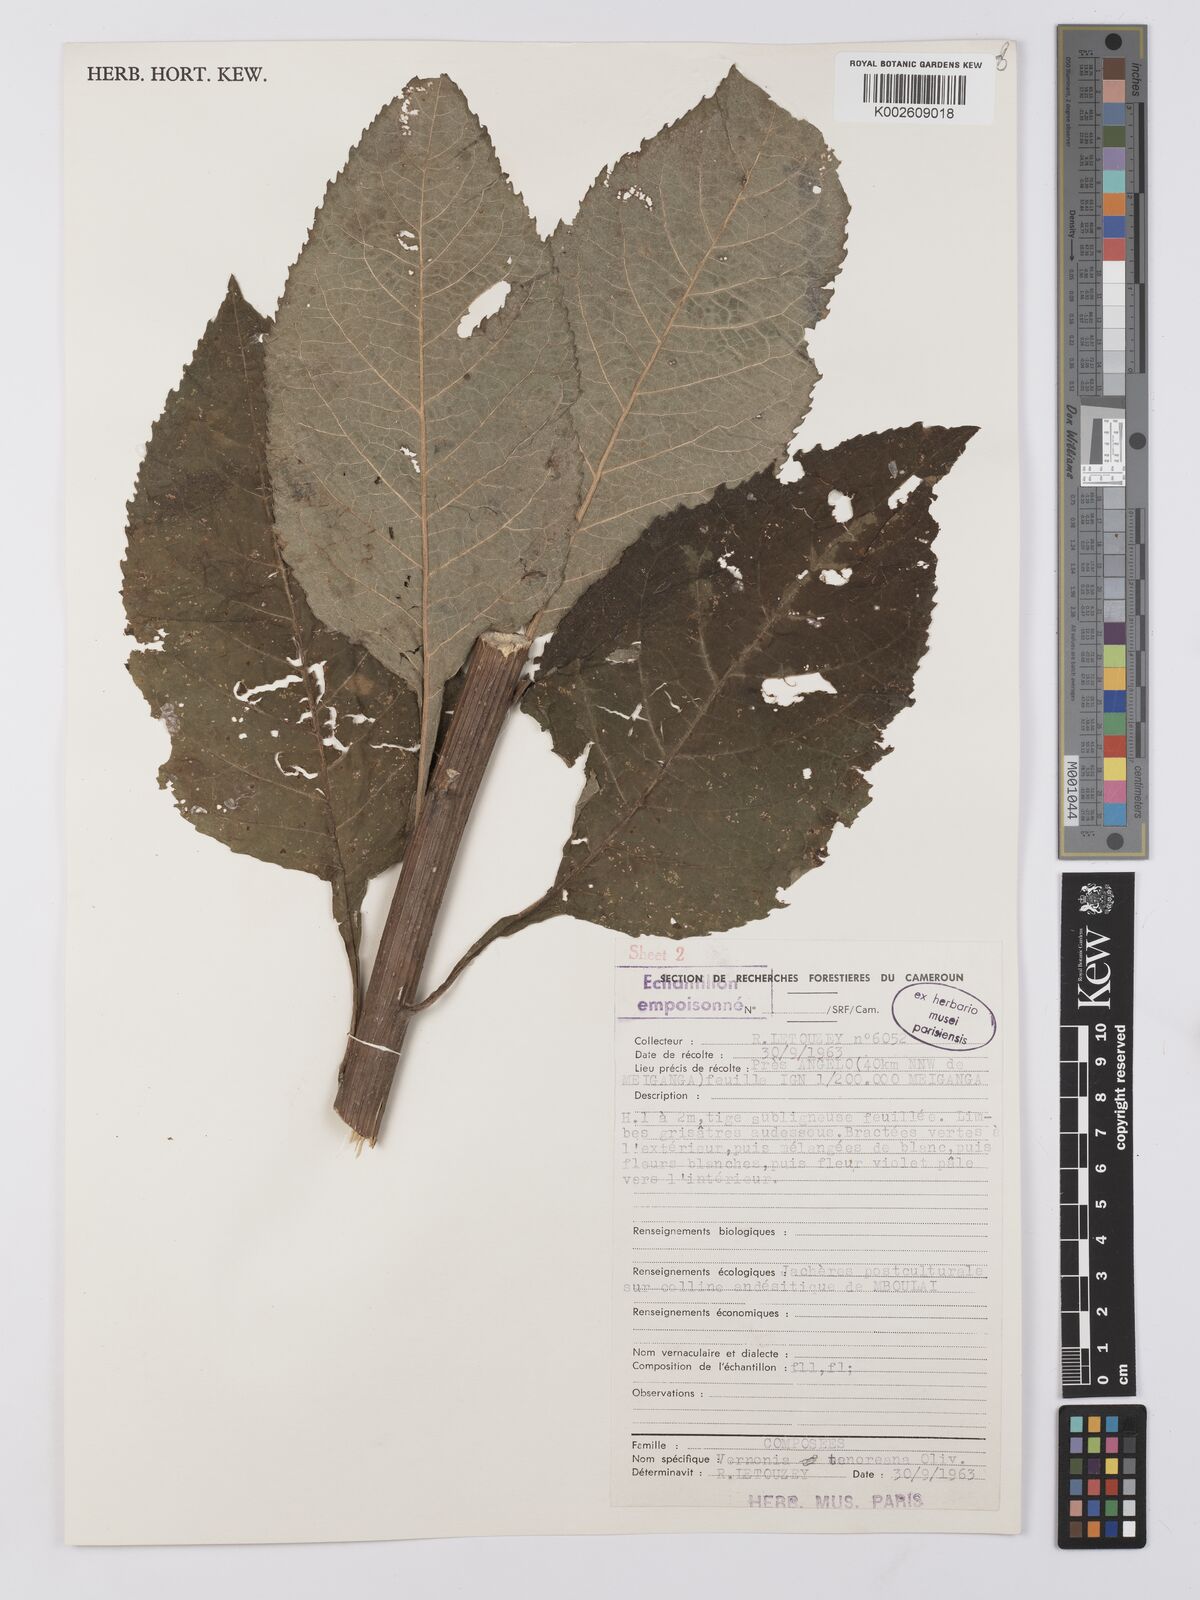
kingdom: Plantae
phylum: Tracheophyta
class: Magnoliopsida
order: Asterales
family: Asteraceae
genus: Baccharoides
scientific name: Baccharoides adoensis
